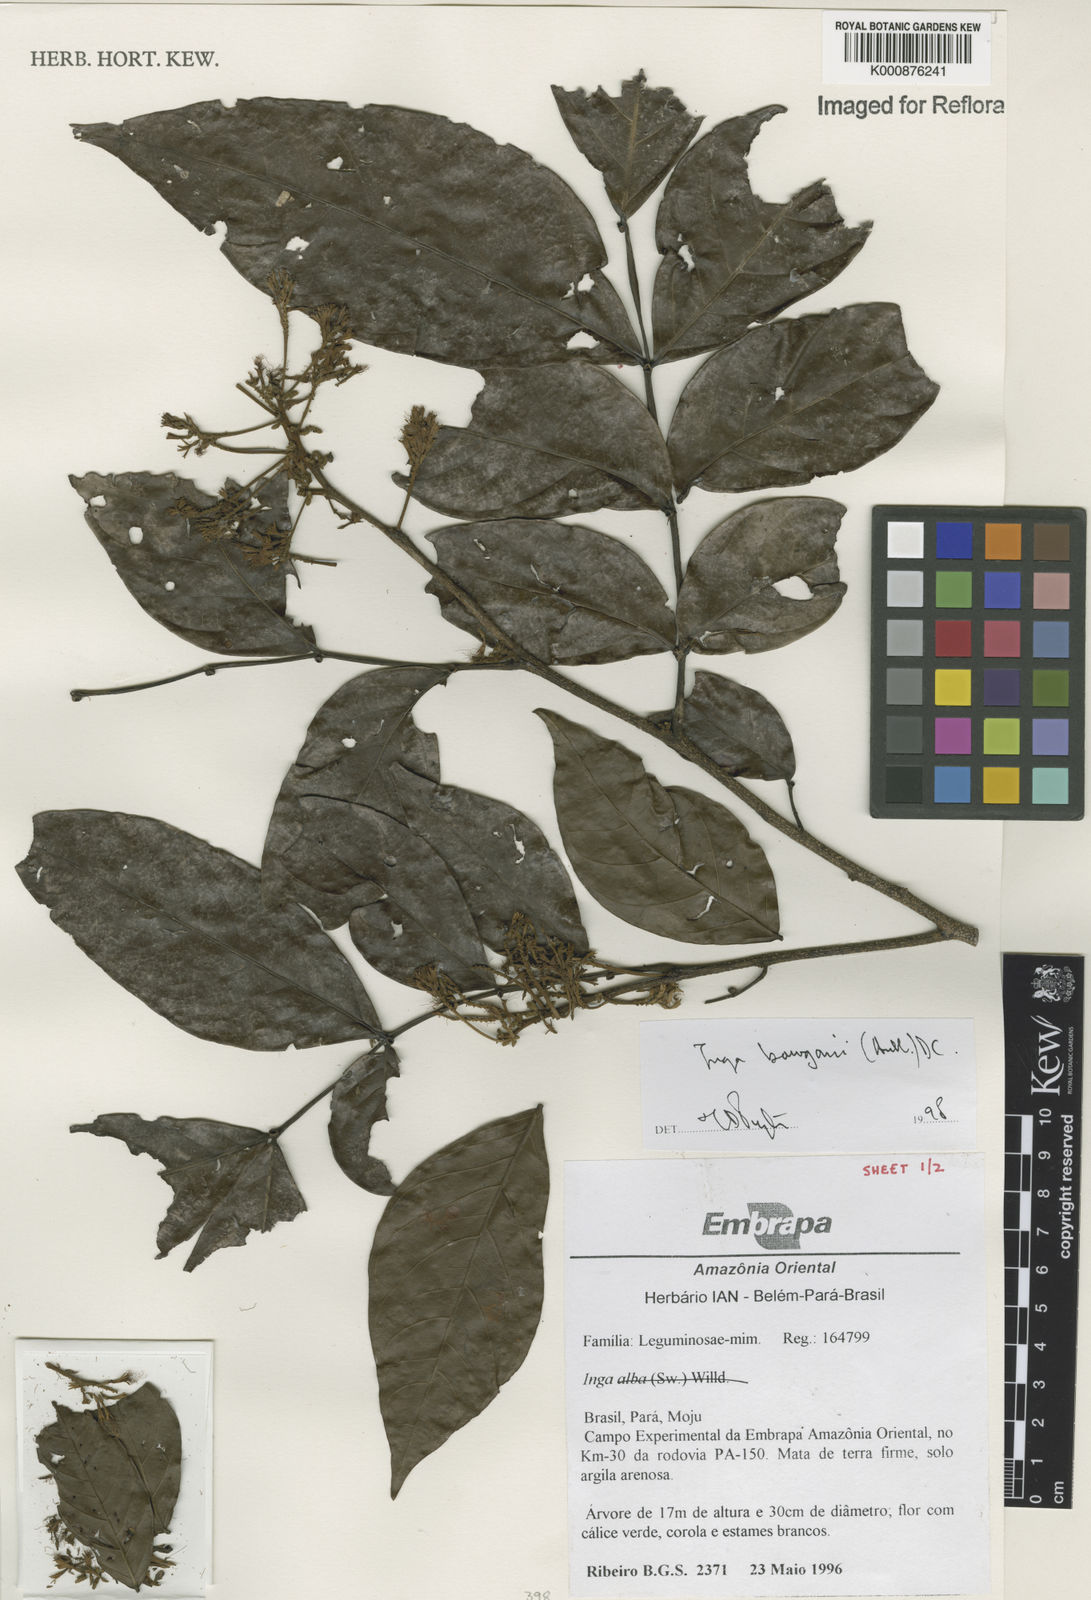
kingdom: Plantae
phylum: Tracheophyta
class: Magnoliopsida
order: Fabales
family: Fabaceae
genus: Inga
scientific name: Inga bourgoni
